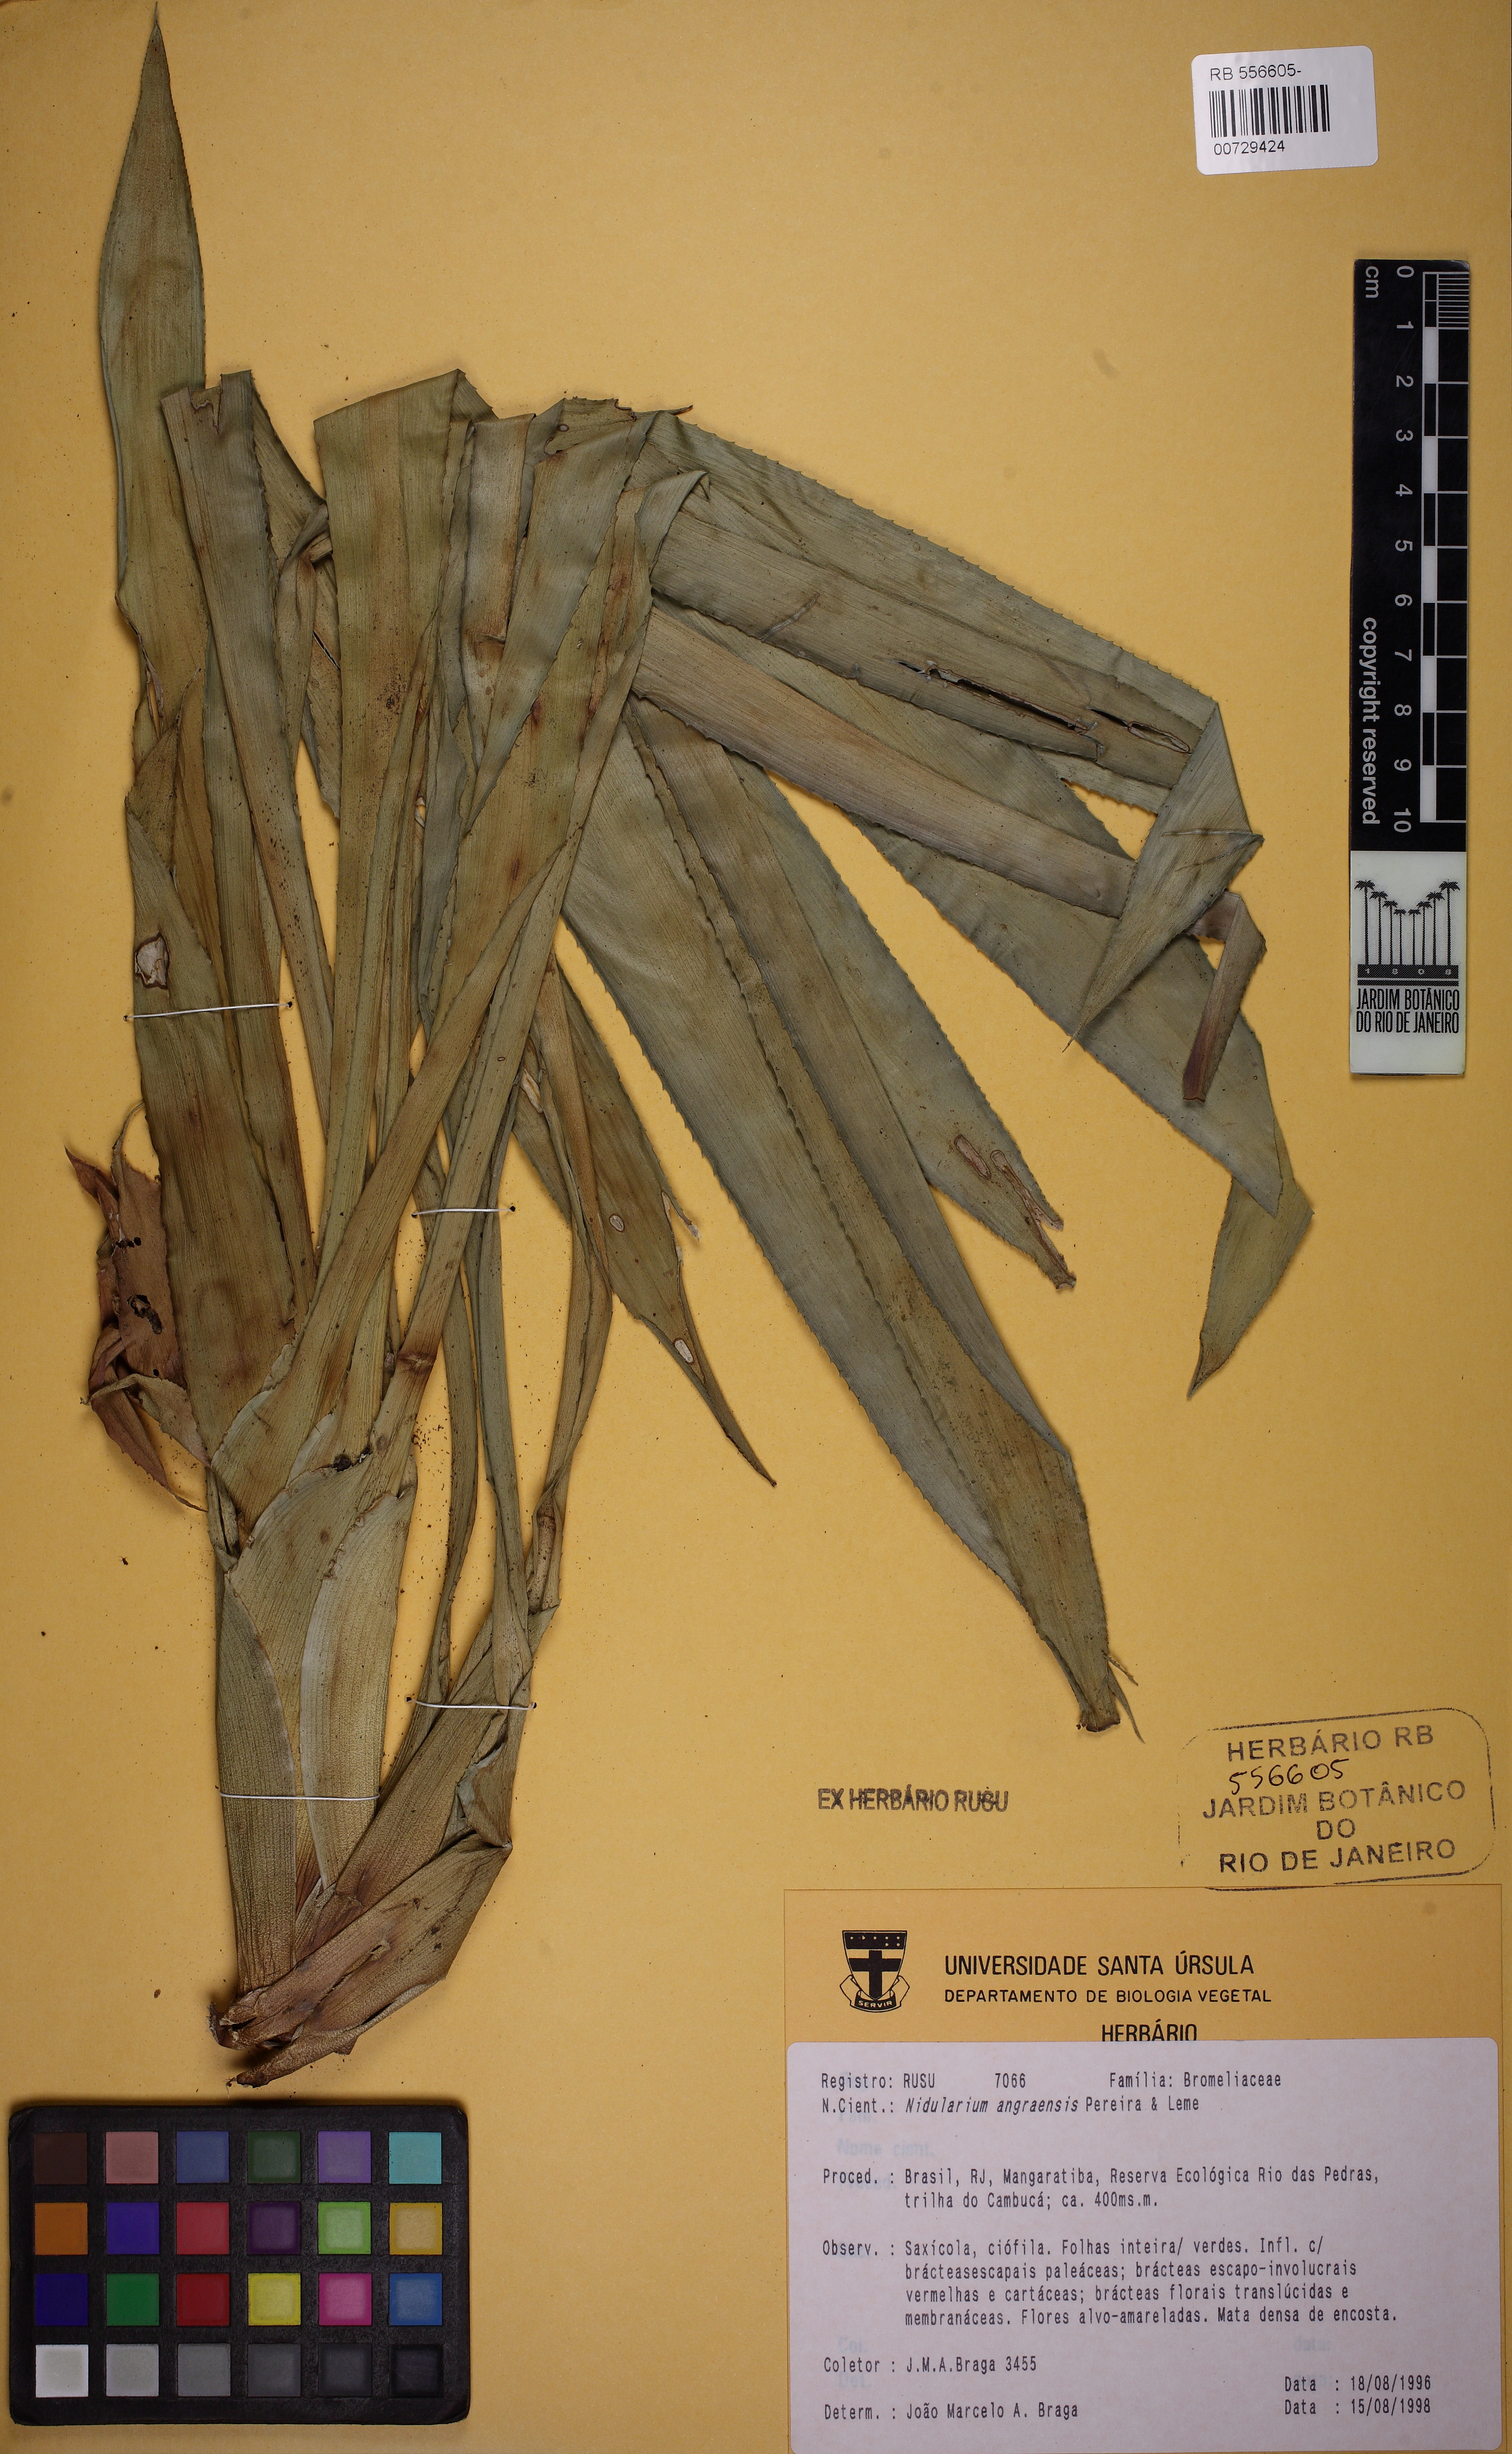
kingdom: Plantae
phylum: Tracheophyta
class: Liliopsida
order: Poales
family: Bromeliaceae
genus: Canistropsis
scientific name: Canistropsis microps
